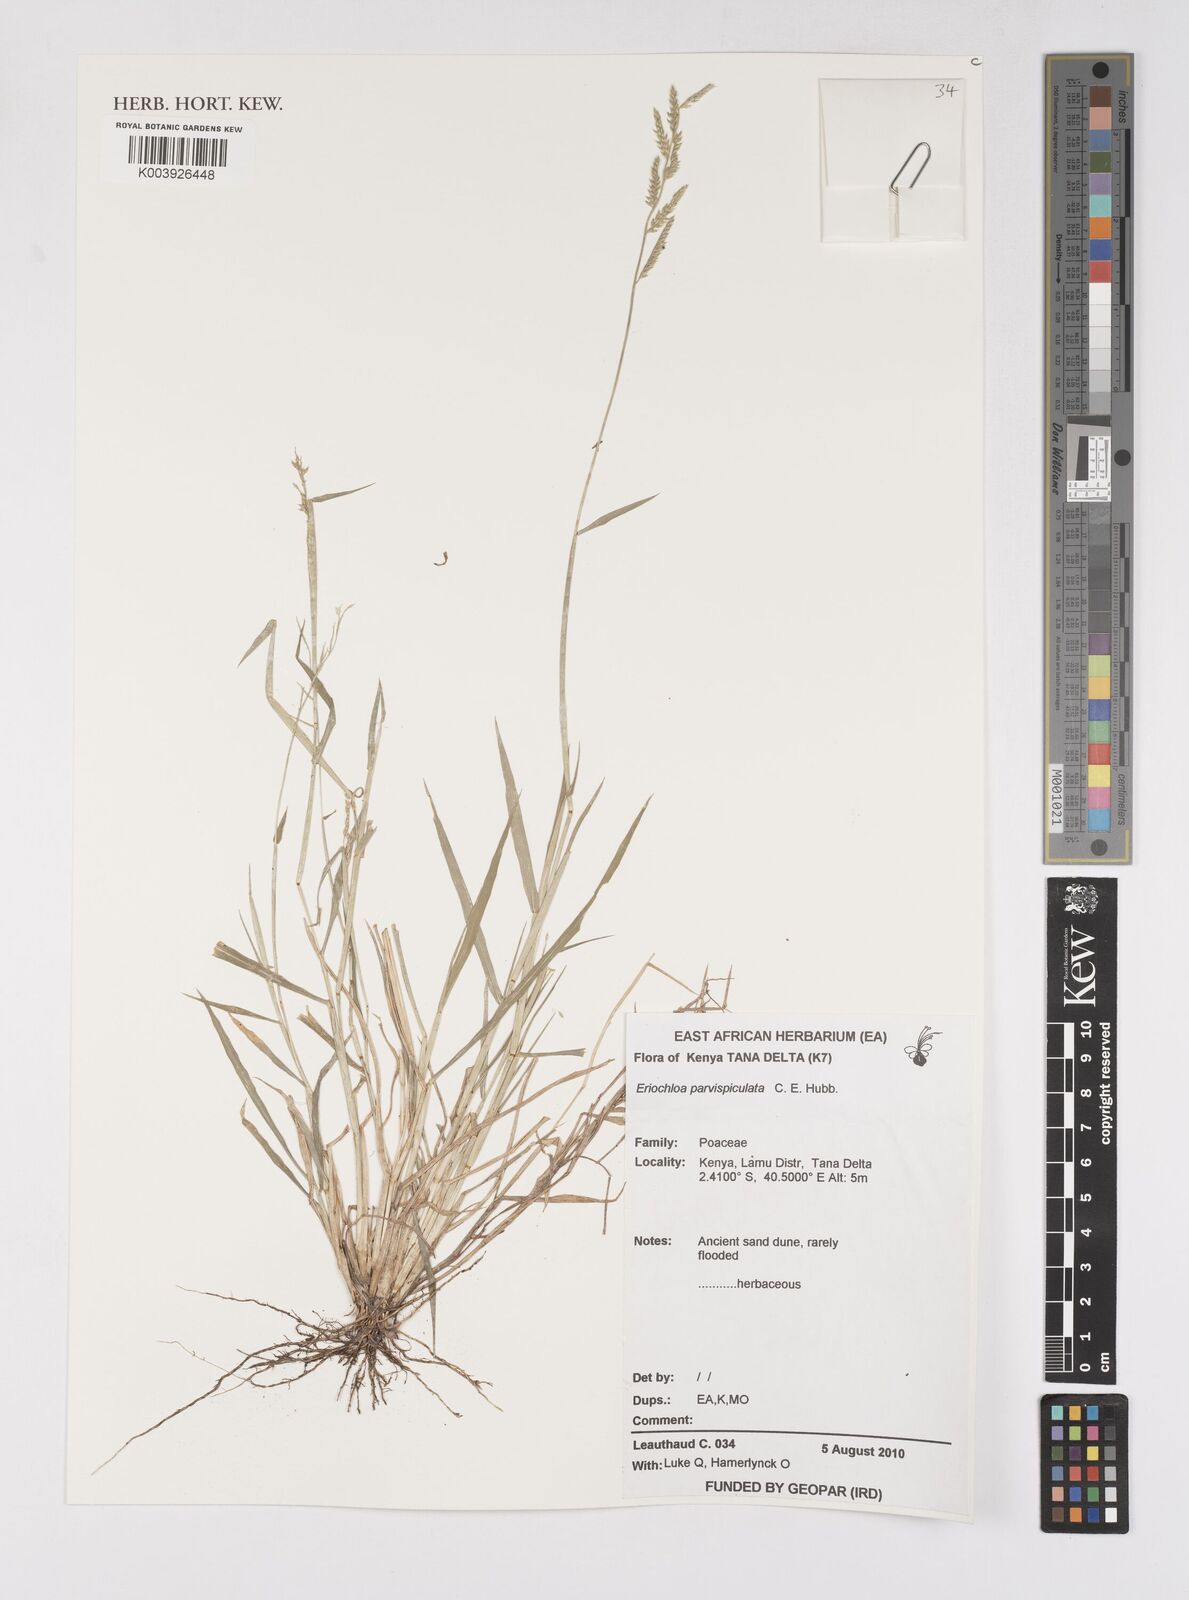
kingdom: Plantae
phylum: Tracheophyta
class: Liliopsida
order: Poales
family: Poaceae
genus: Eriochloa
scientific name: Eriochloa parvispiculata
